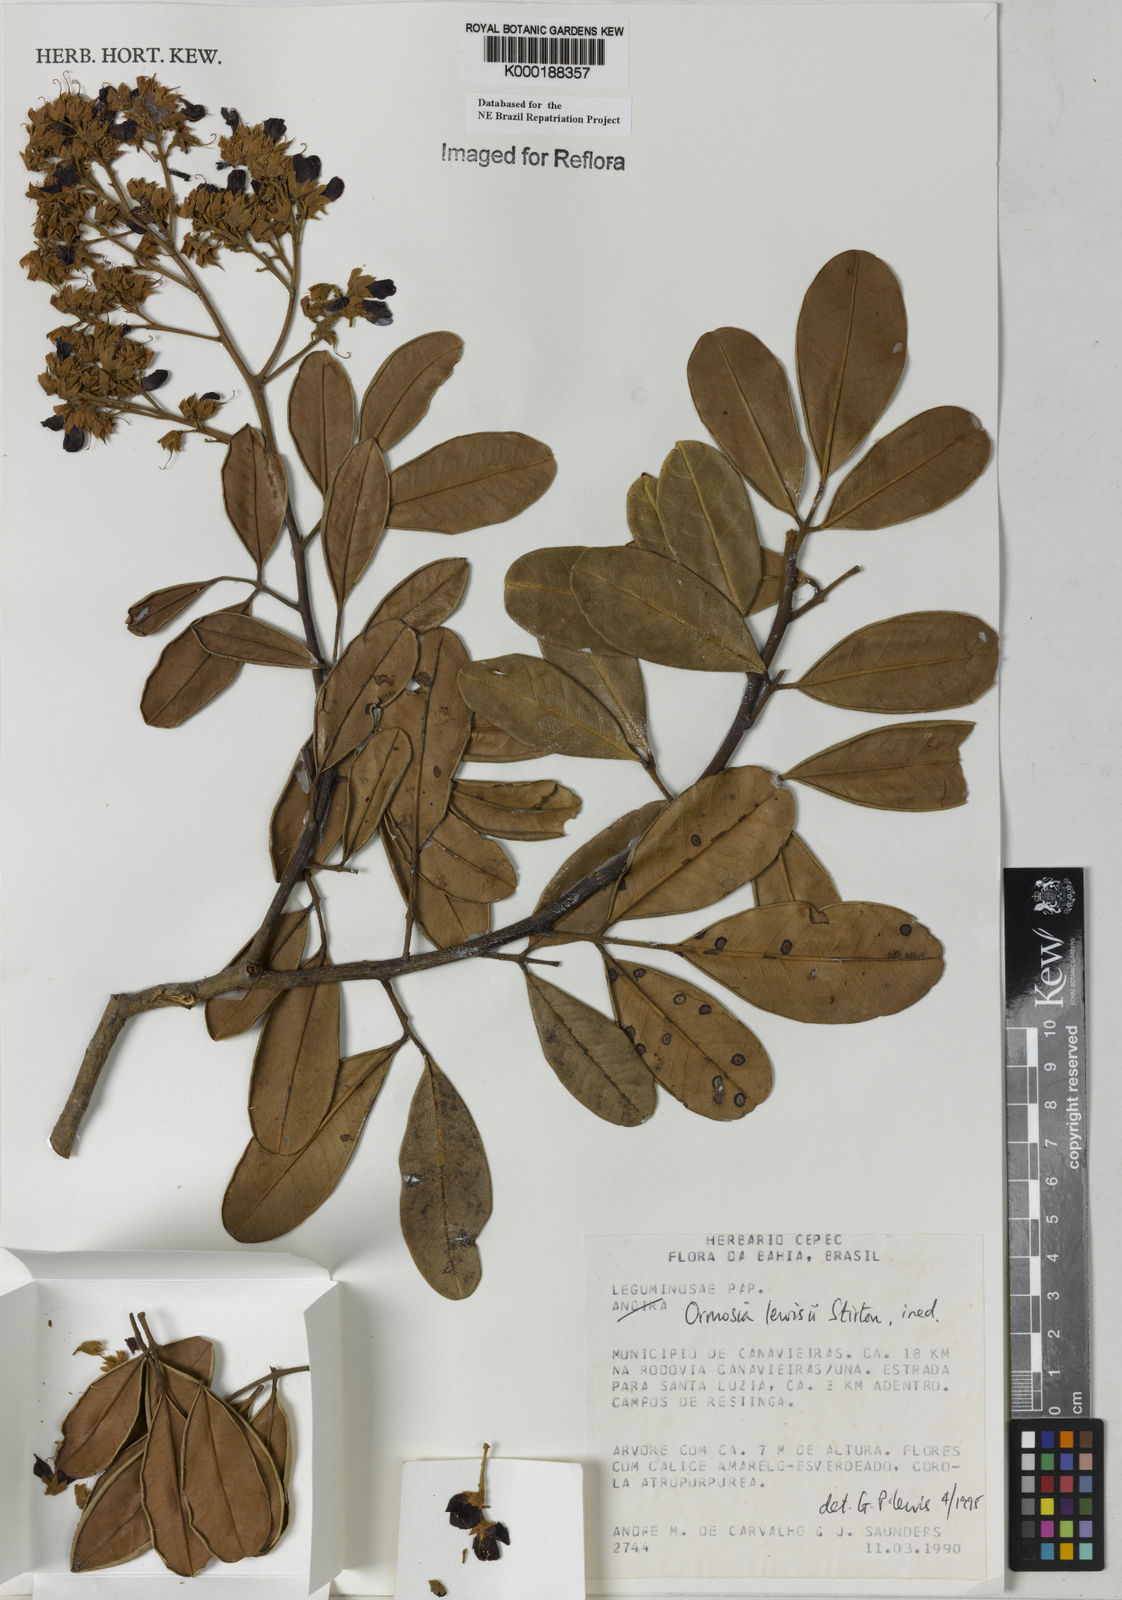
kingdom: Plantae
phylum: Tracheophyta
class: Magnoliopsida
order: Fabales
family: Fabaceae
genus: Ormosia
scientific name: Ormosia
